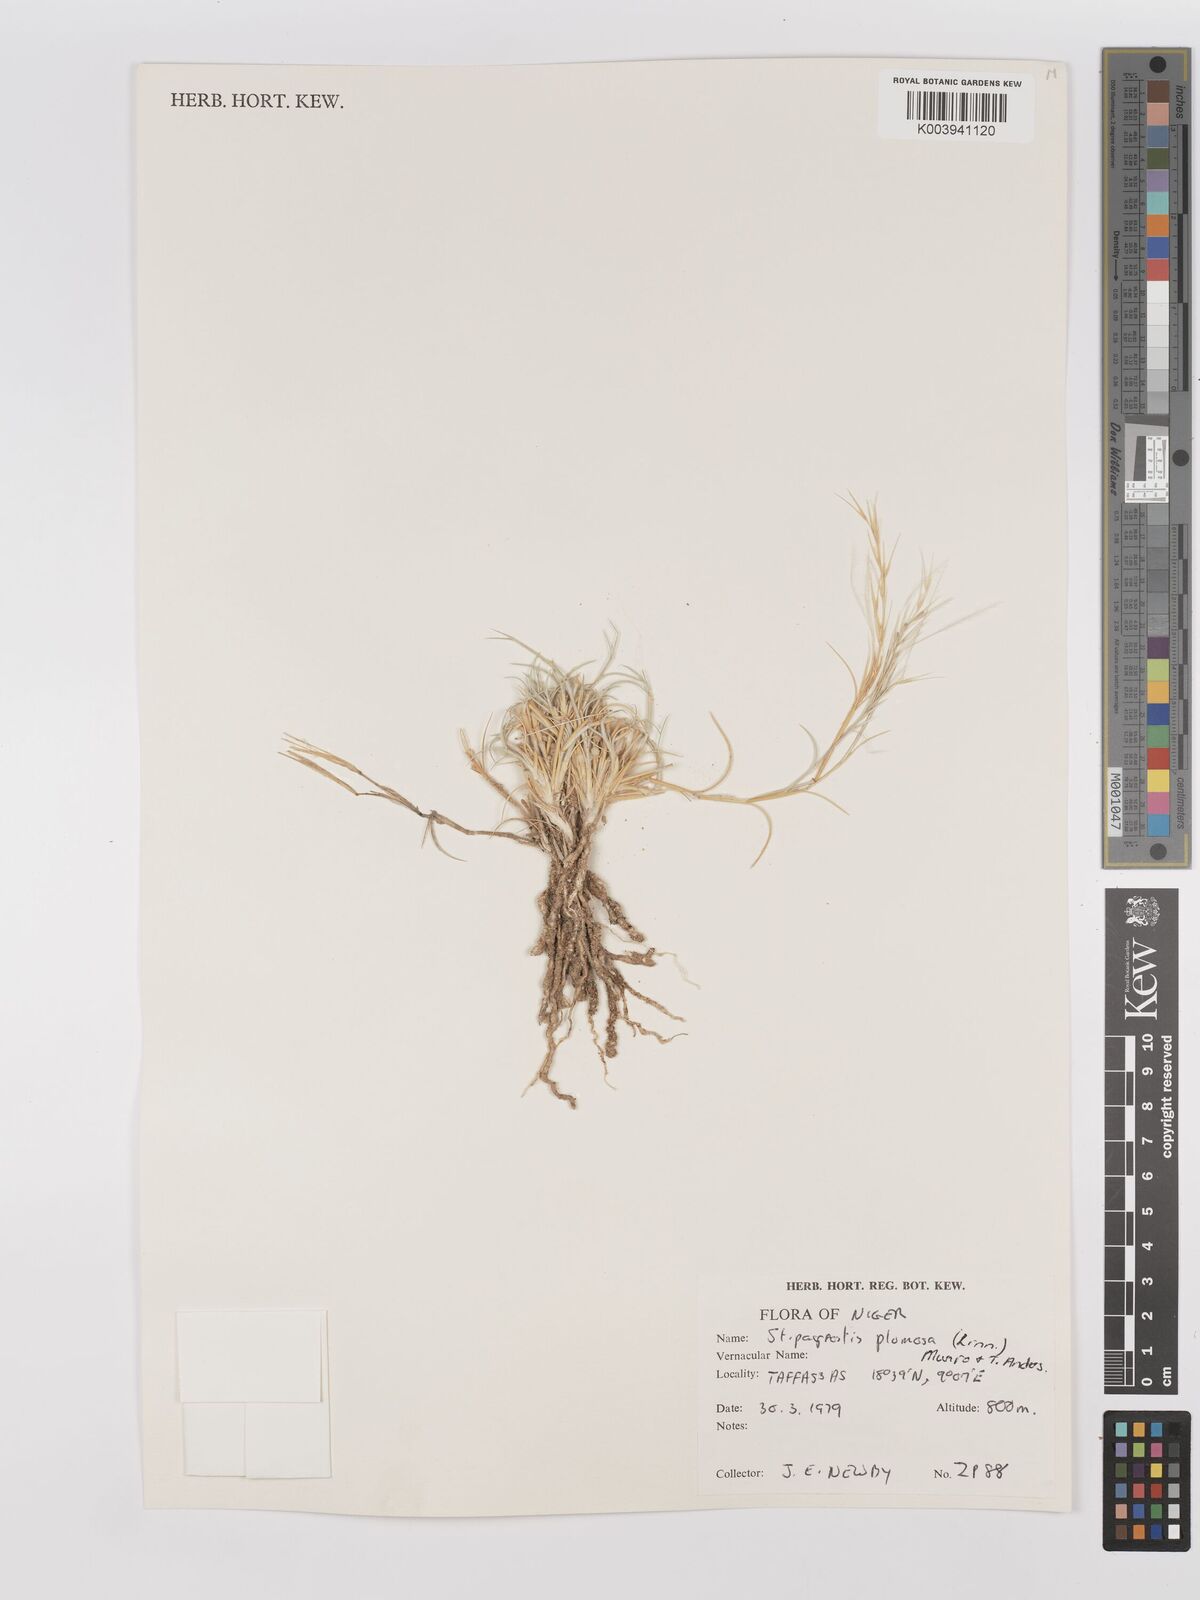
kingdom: Plantae
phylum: Tracheophyta
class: Liliopsida
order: Poales
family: Poaceae
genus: Stipagrostis
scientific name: Stipagrostis plumosa
